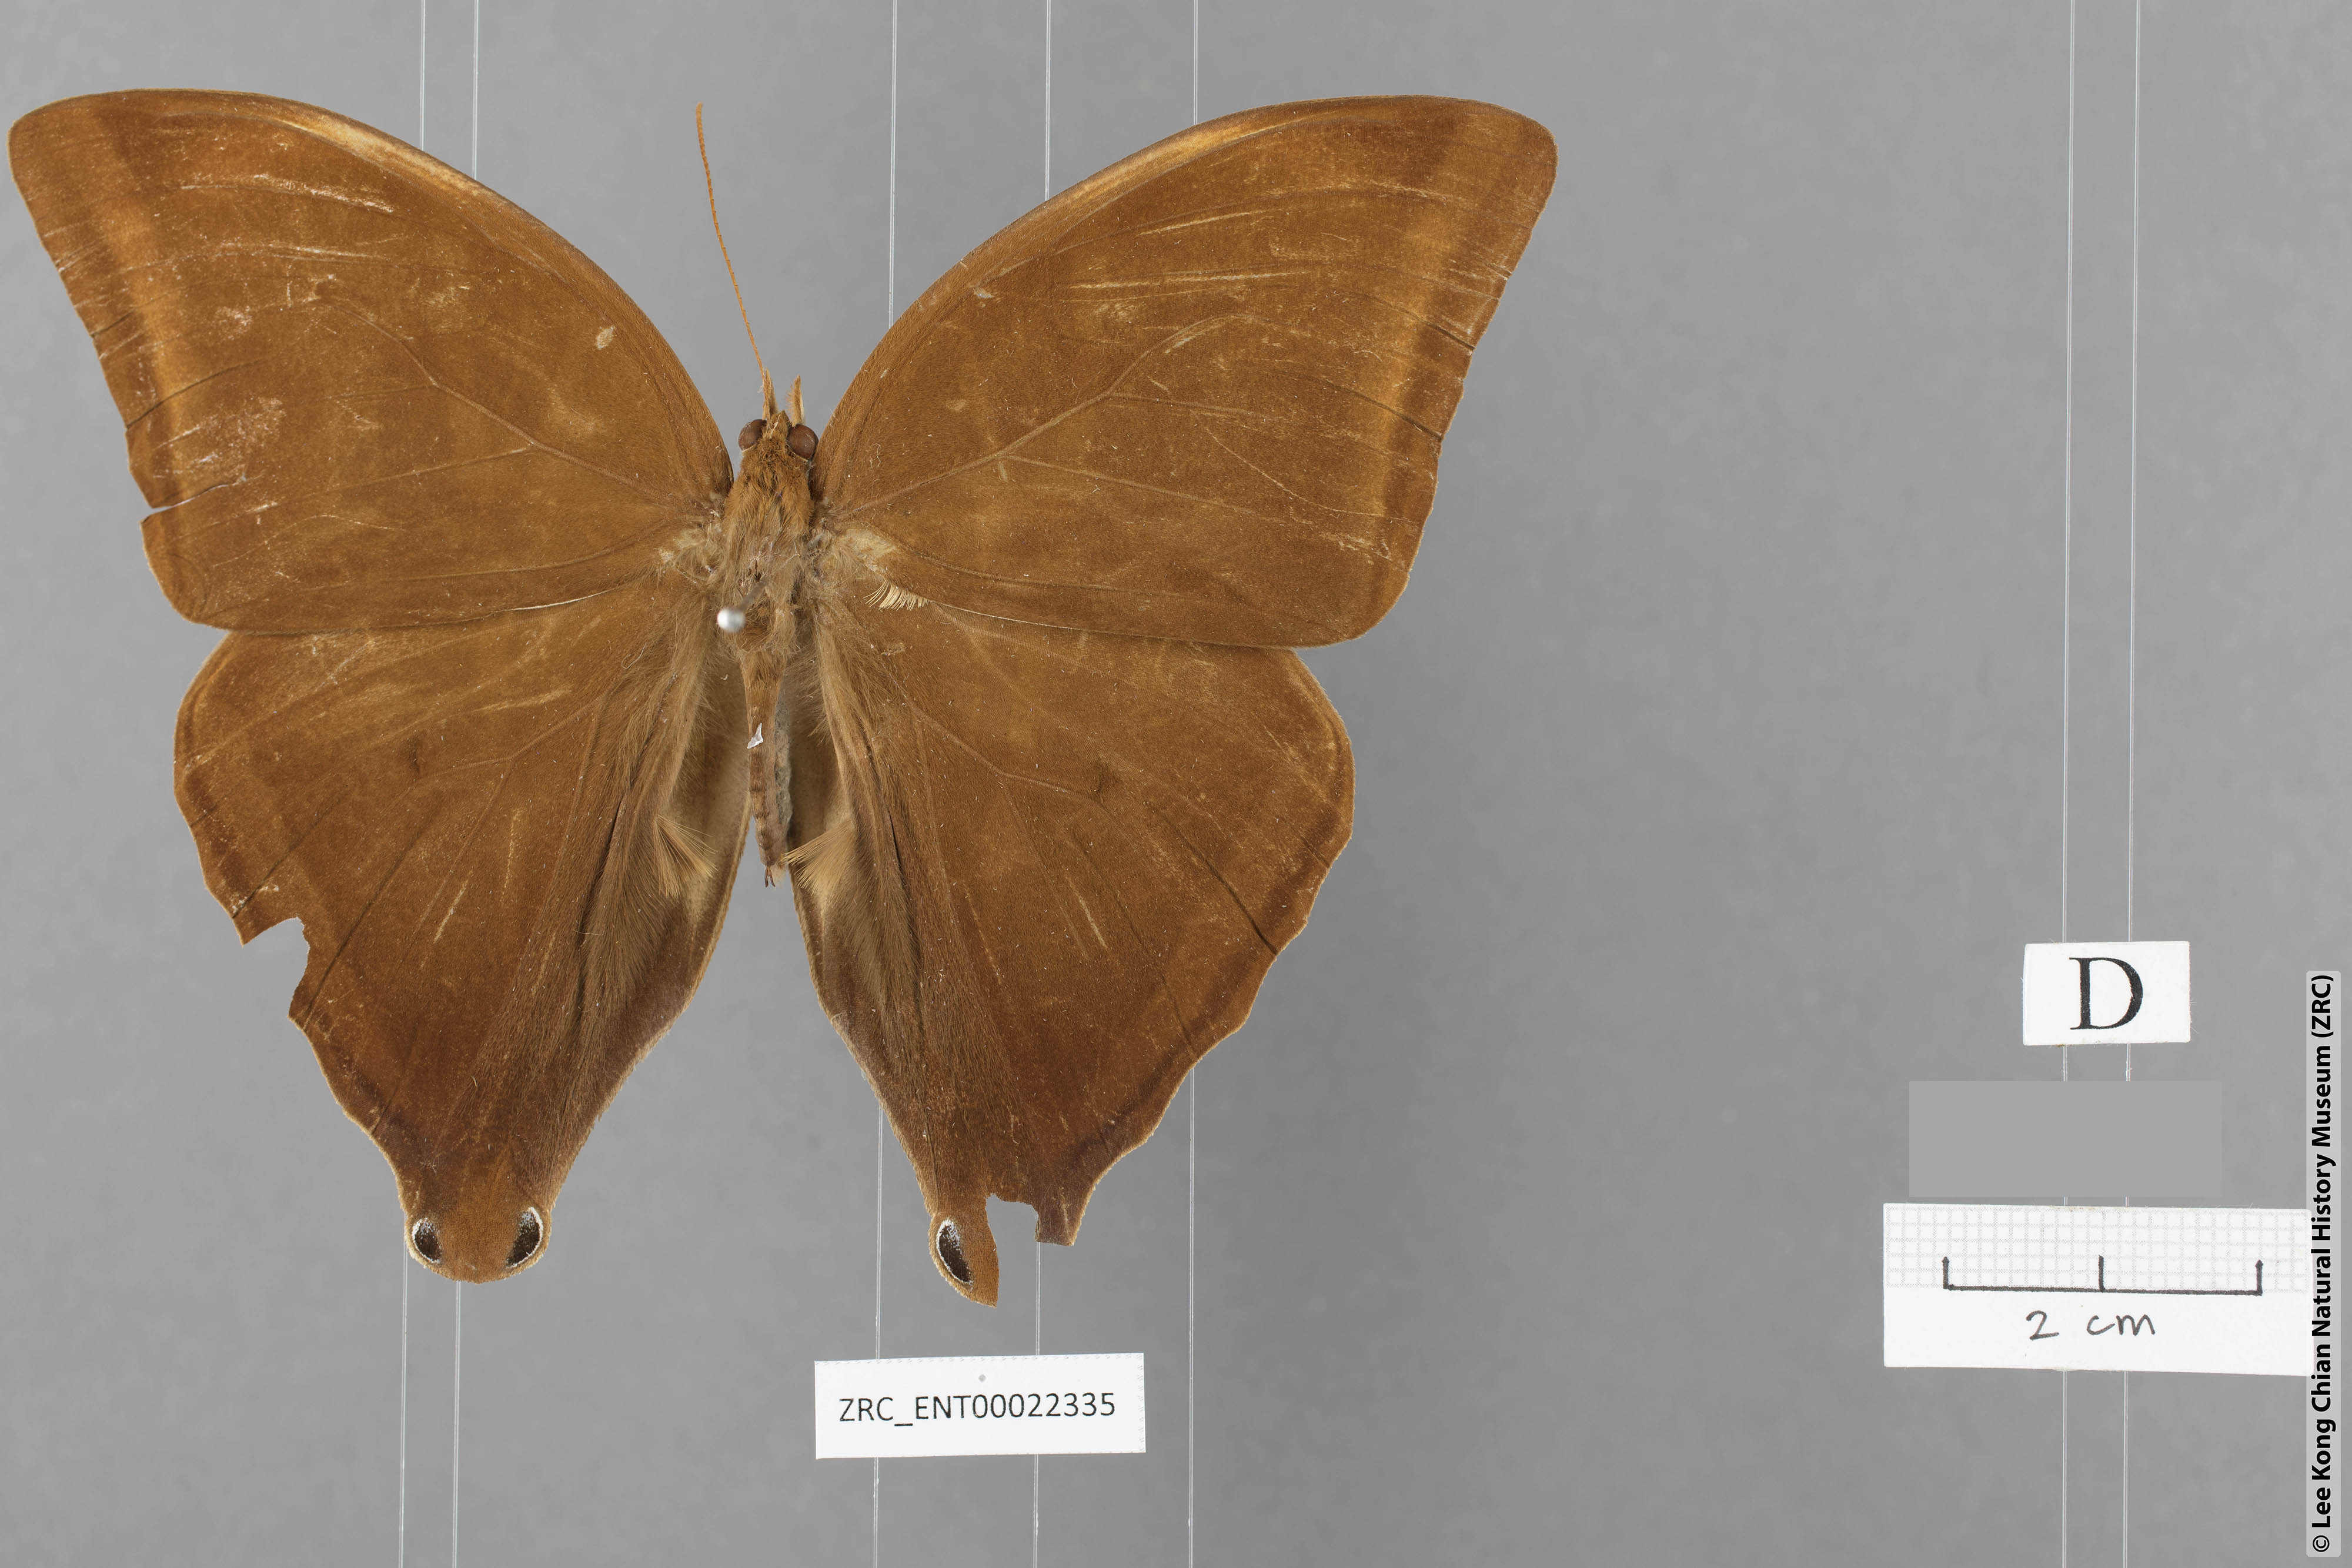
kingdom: Animalia
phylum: Arthropoda
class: Insecta
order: Lepidoptera
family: Nymphalidae
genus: Amathusia
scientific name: Amathusia masina
